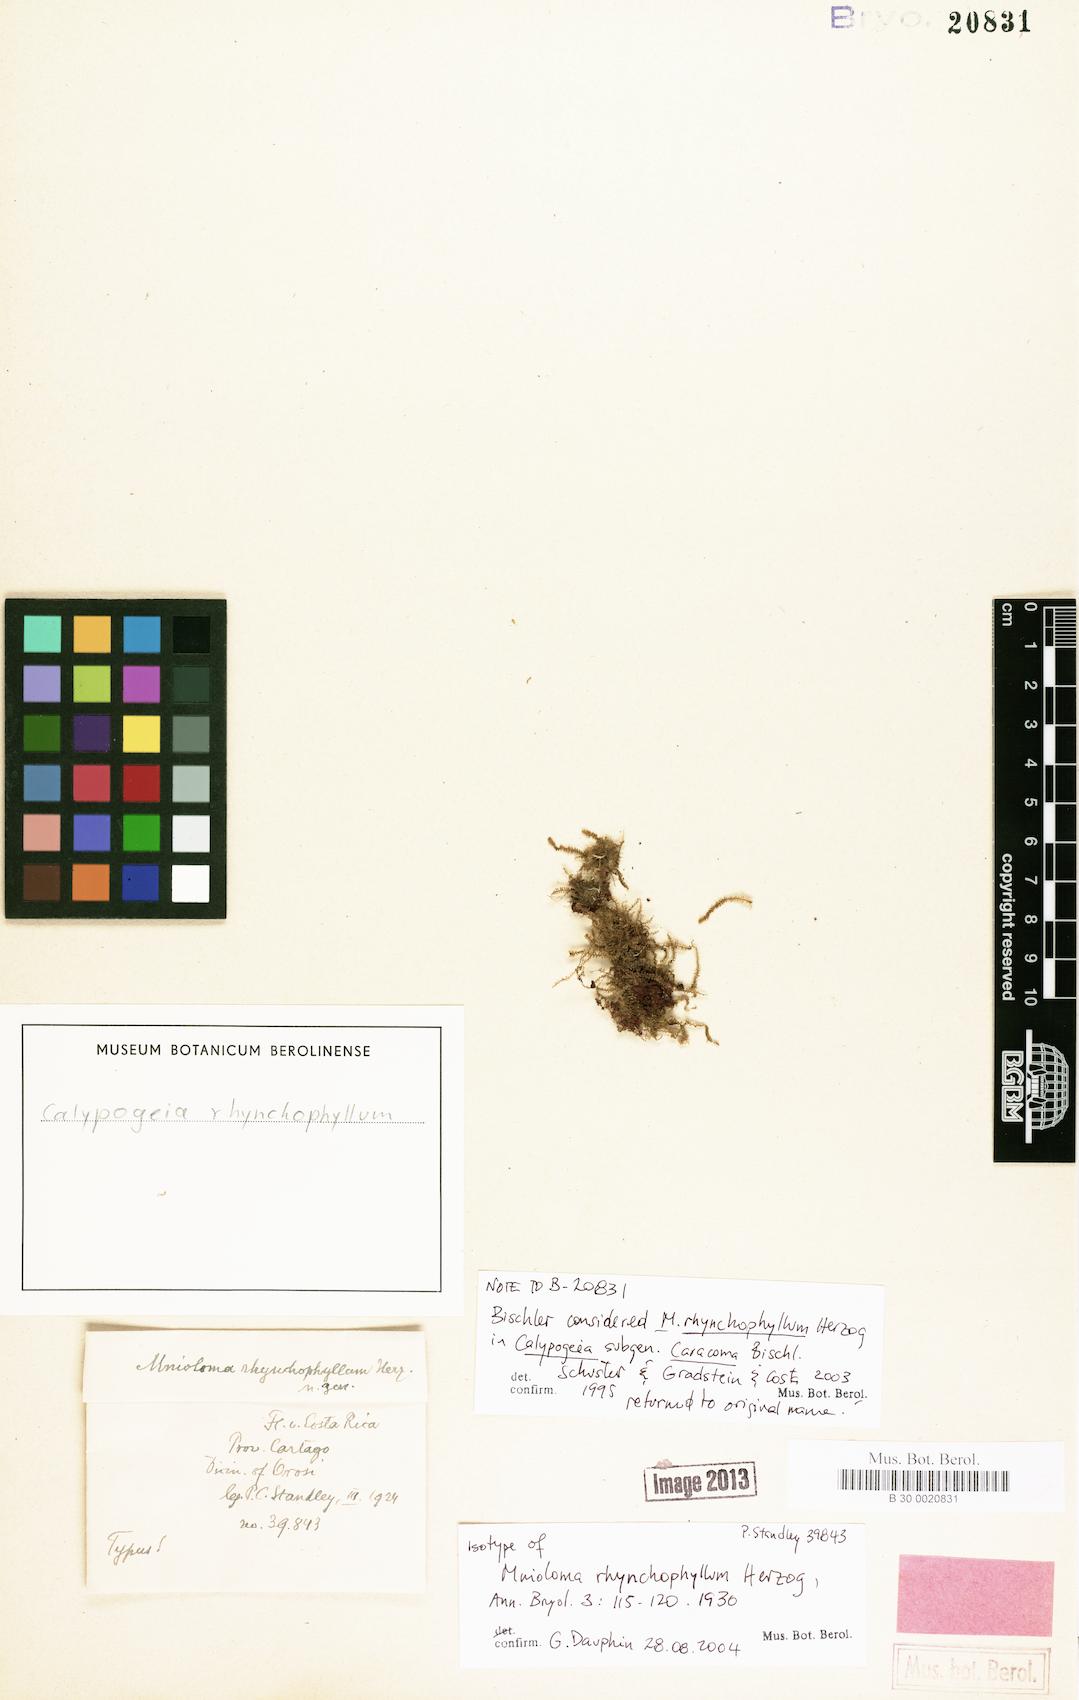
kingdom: Plantae
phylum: Marchantiophyta
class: Jungermanniopsida
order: Jungermanniales
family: Calypogeiaceae
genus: Mnioloma
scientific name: Mnioloma rhynchophyllum
